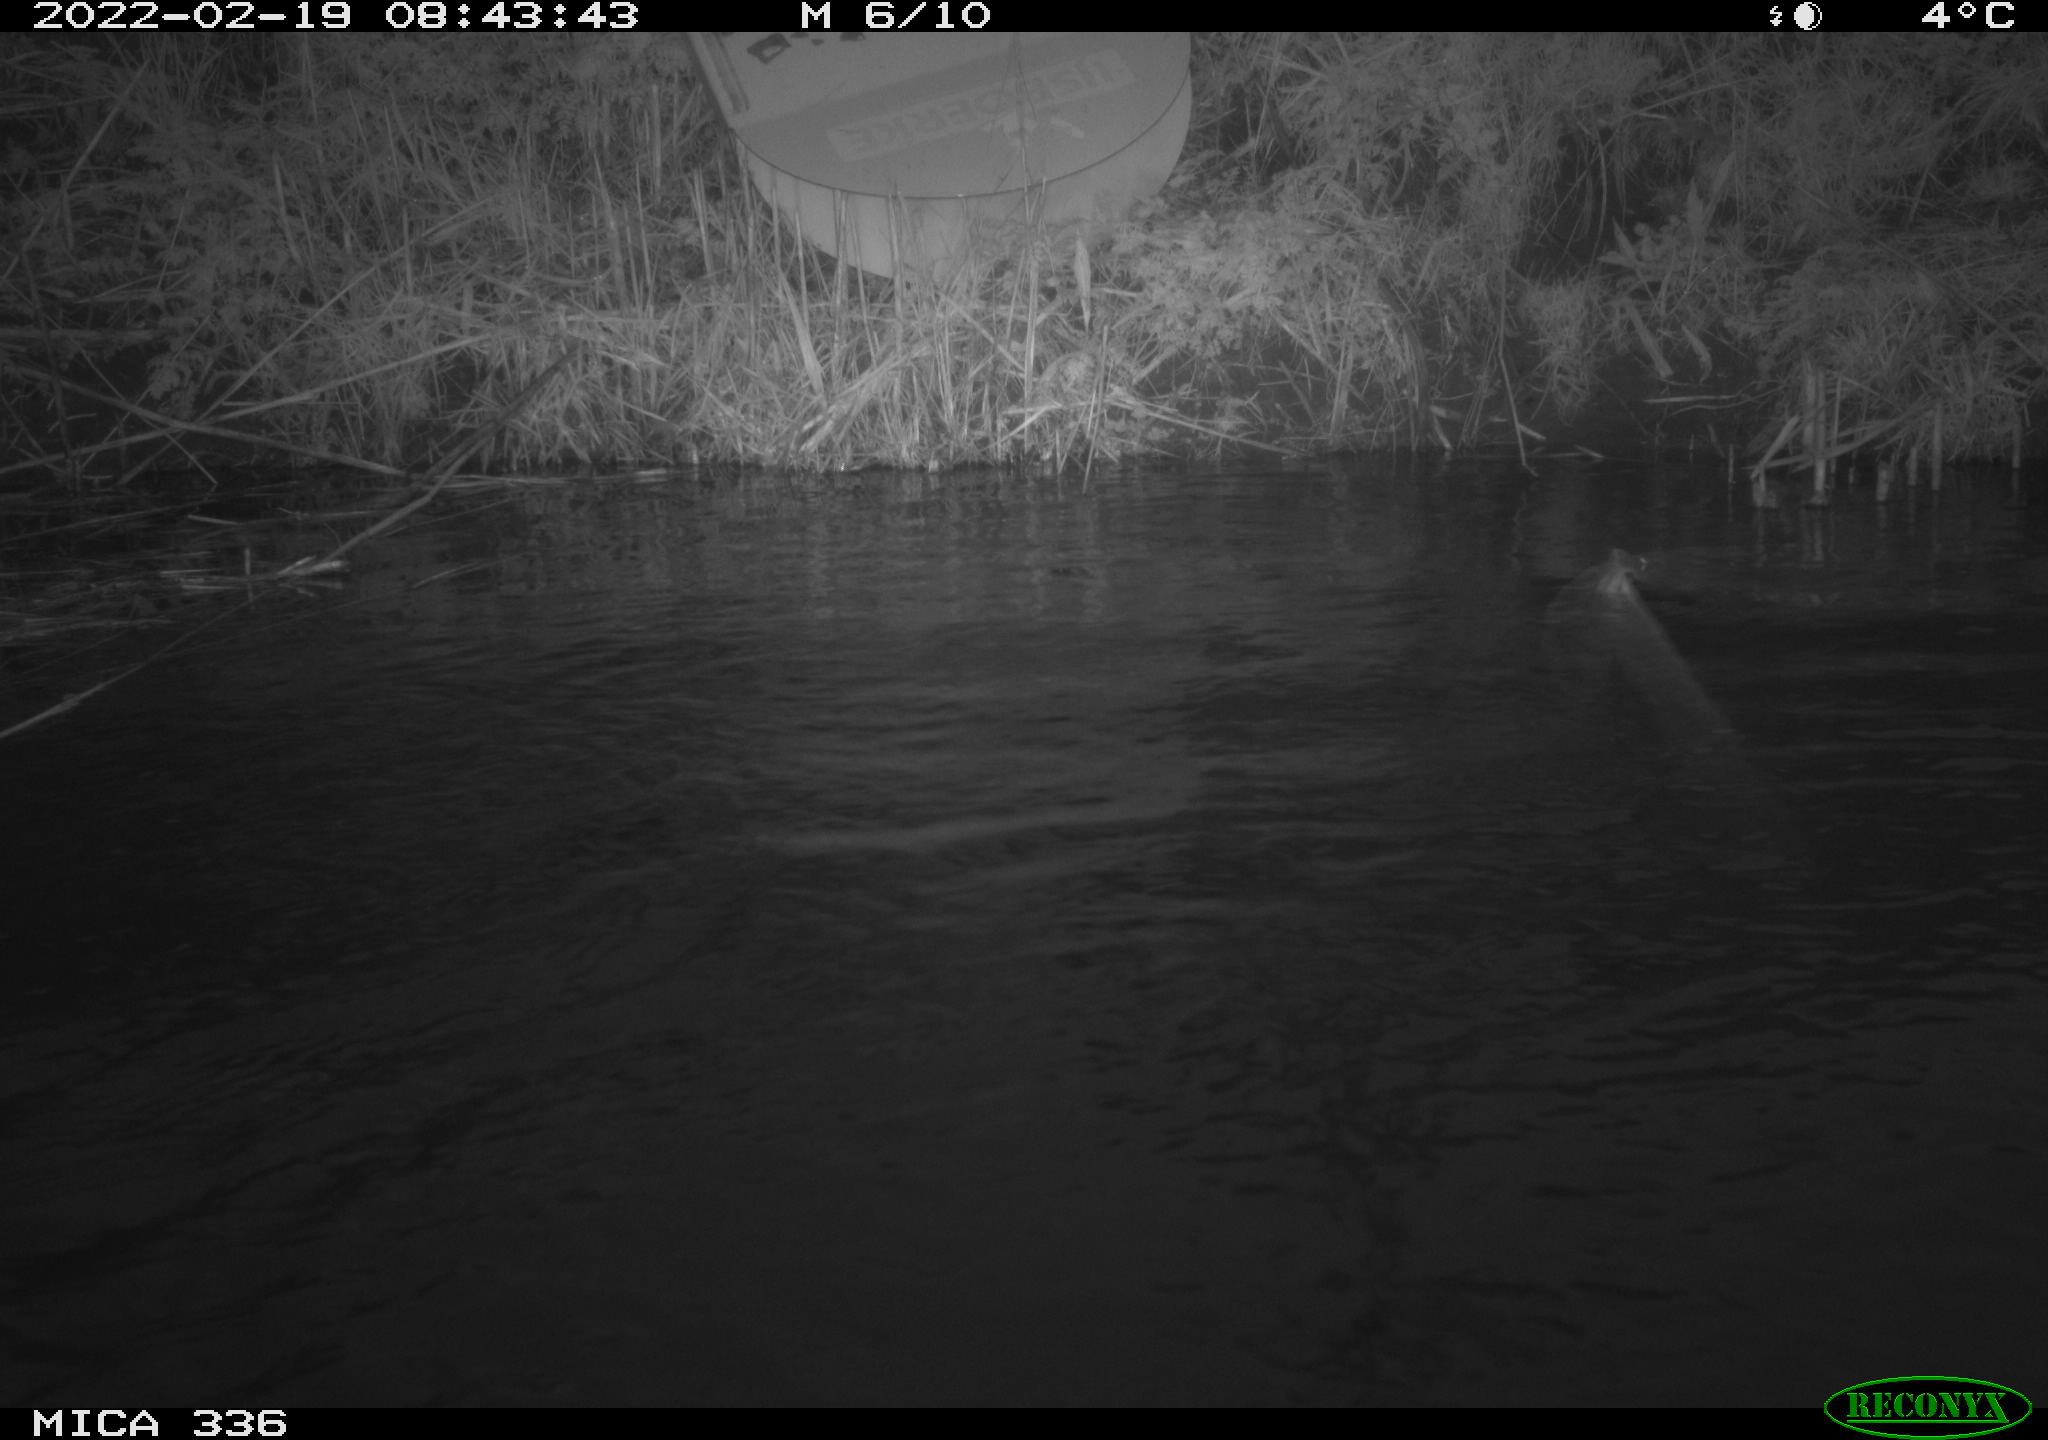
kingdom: Animalia
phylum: Chordata
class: Aves
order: Suliformes
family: Phalacrocoracidae
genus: Phalacrocorax
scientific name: Phalacrocorax carbo
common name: Great cormorant
